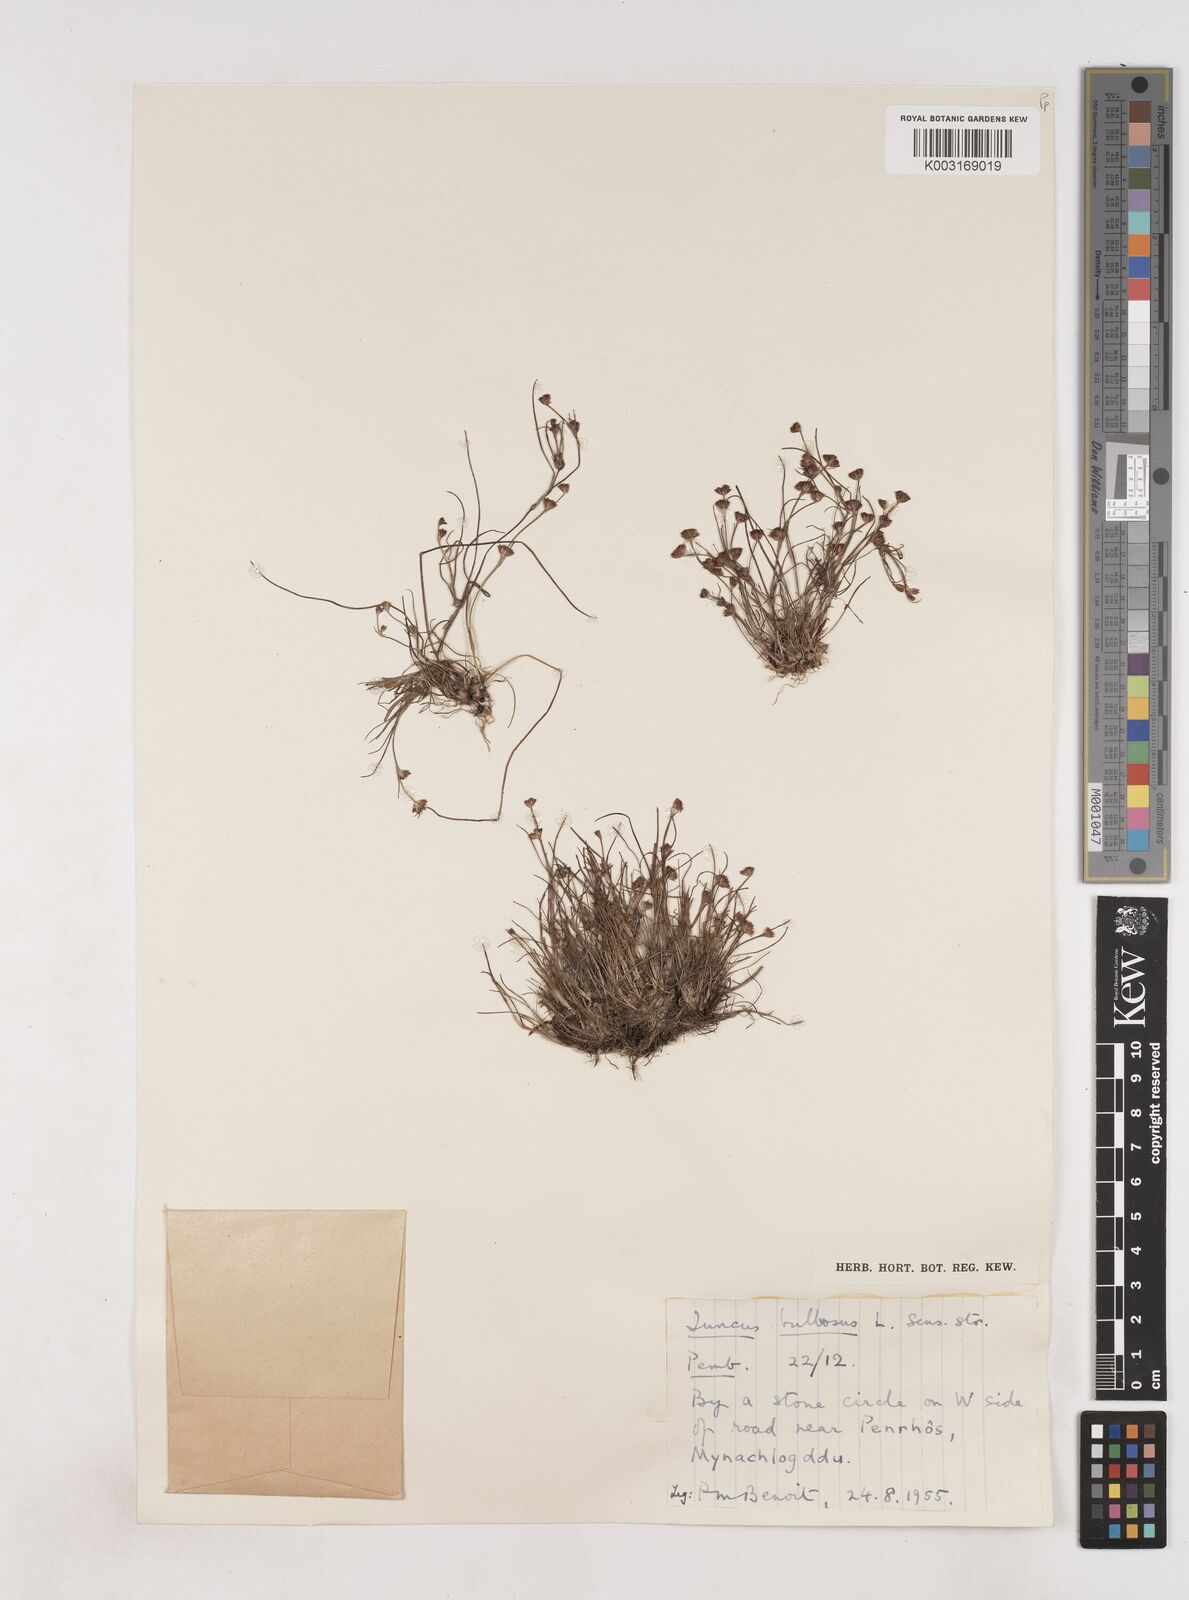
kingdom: Plantae
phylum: Tracheophyta
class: Liliopsida
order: Poales
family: Juncaceae
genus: Juncus
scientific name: Juncus bulbosus
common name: Bulbous rush
